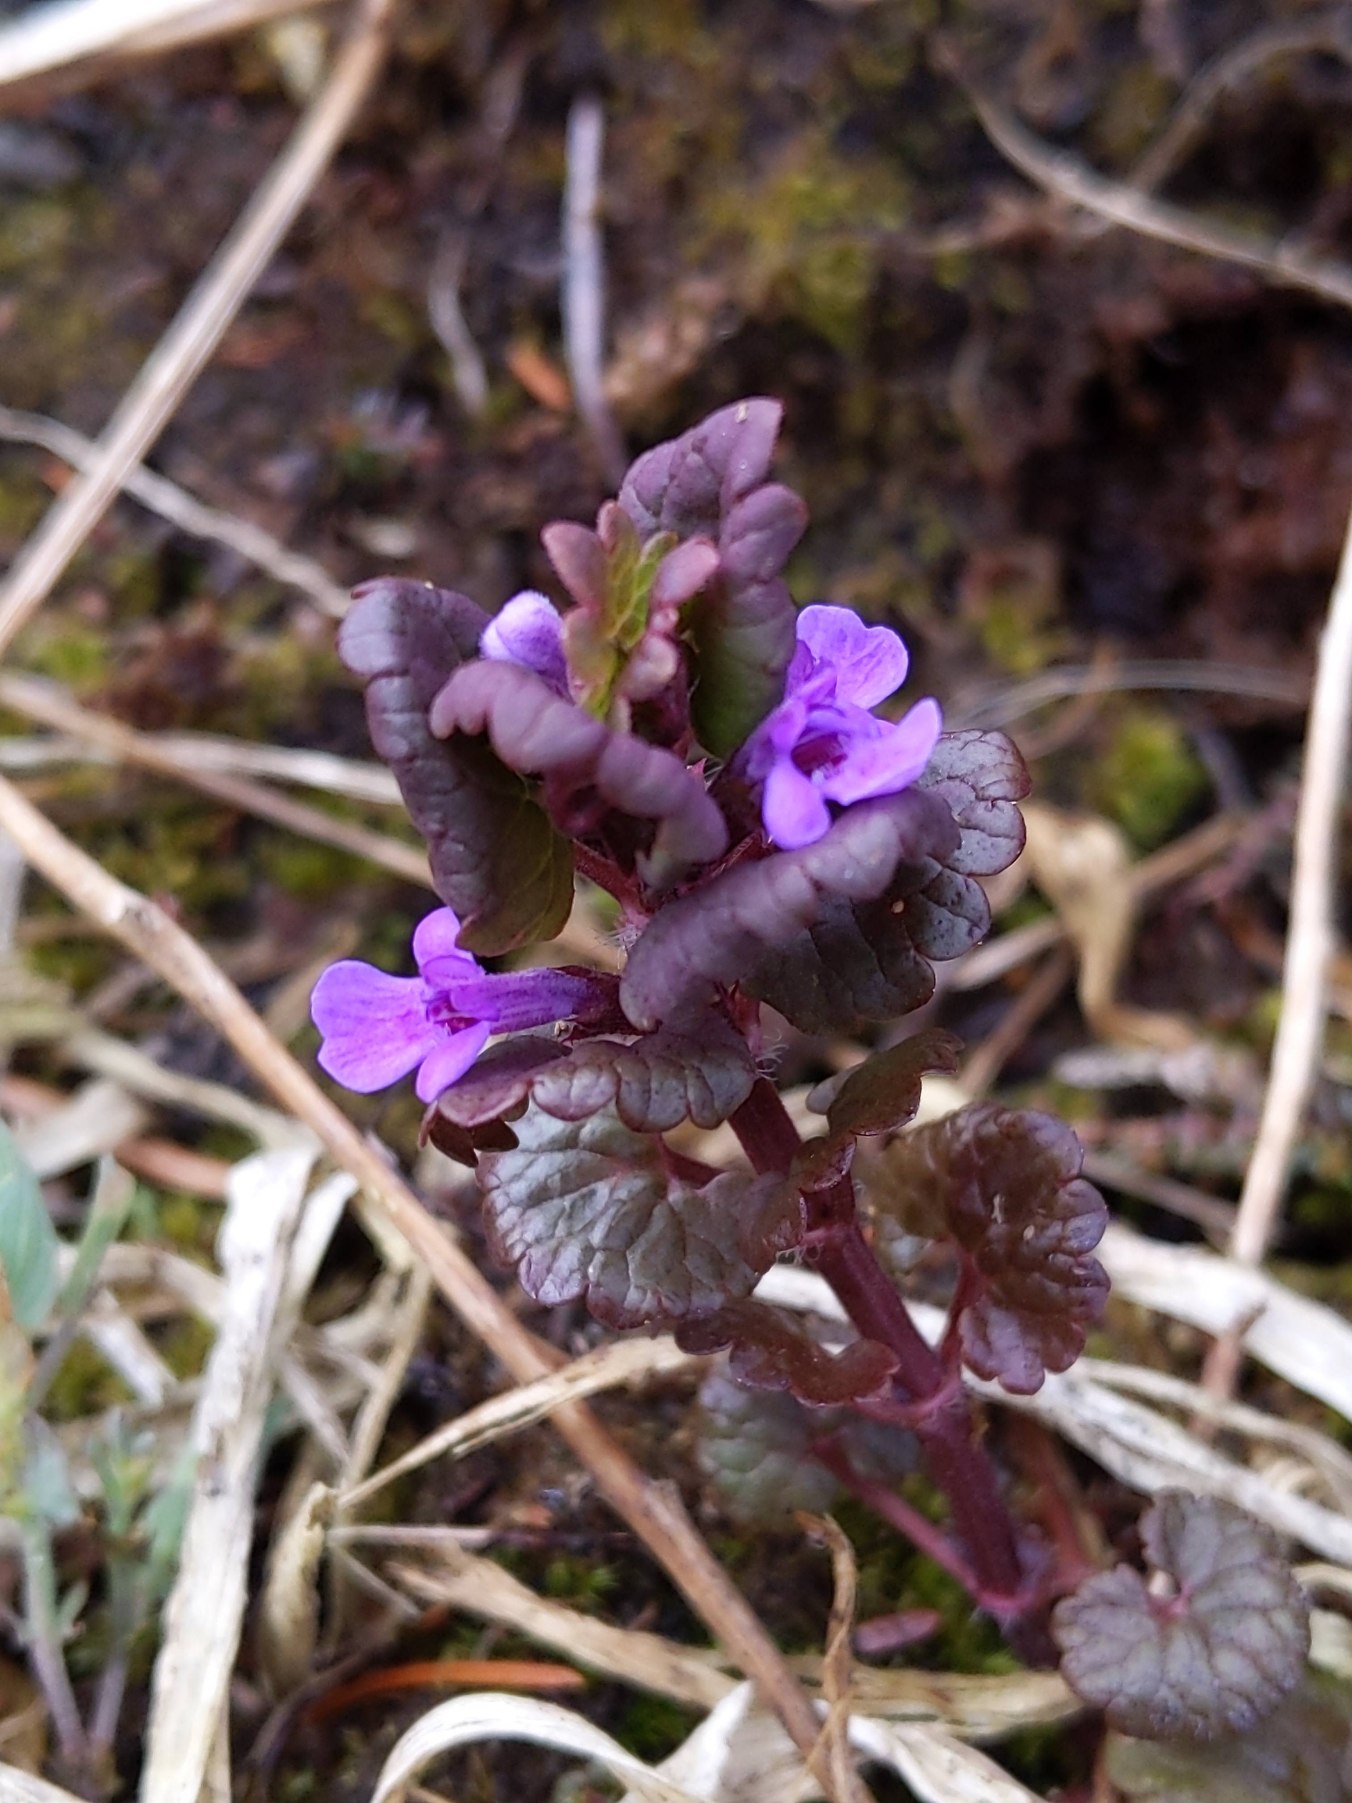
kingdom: Plantae
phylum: Tracheophyta
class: Magnoliopsida
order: Lamiales
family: Lamiaceae
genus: Glechoma
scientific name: Glechoma hederacea
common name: Korsknap
